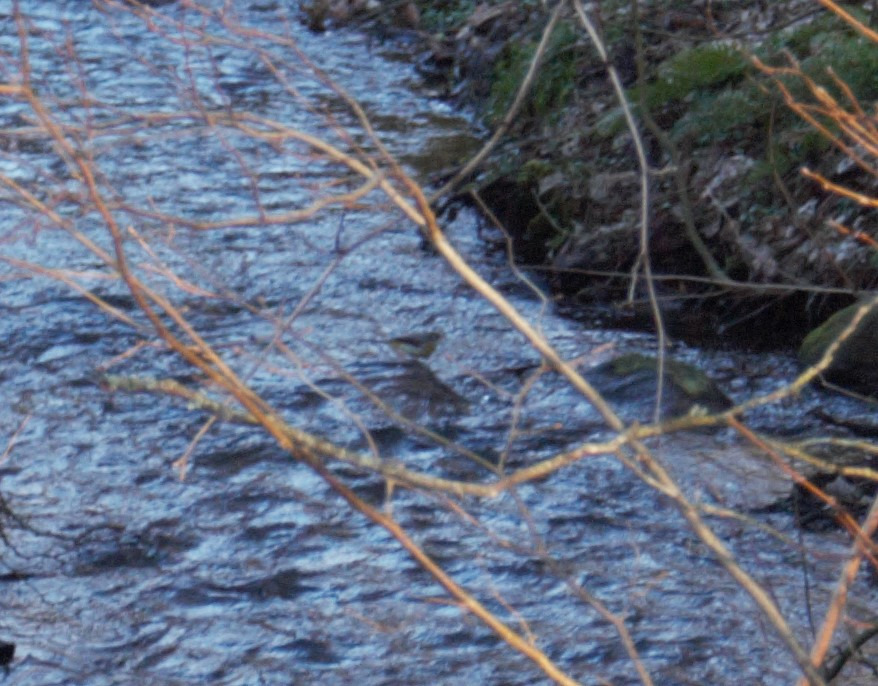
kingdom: Animalia
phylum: Chordata
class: Aves
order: Passeriformes
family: Motacillidae
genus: Motacilla
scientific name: Motacilla cinerea
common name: Bjergvipstjert
